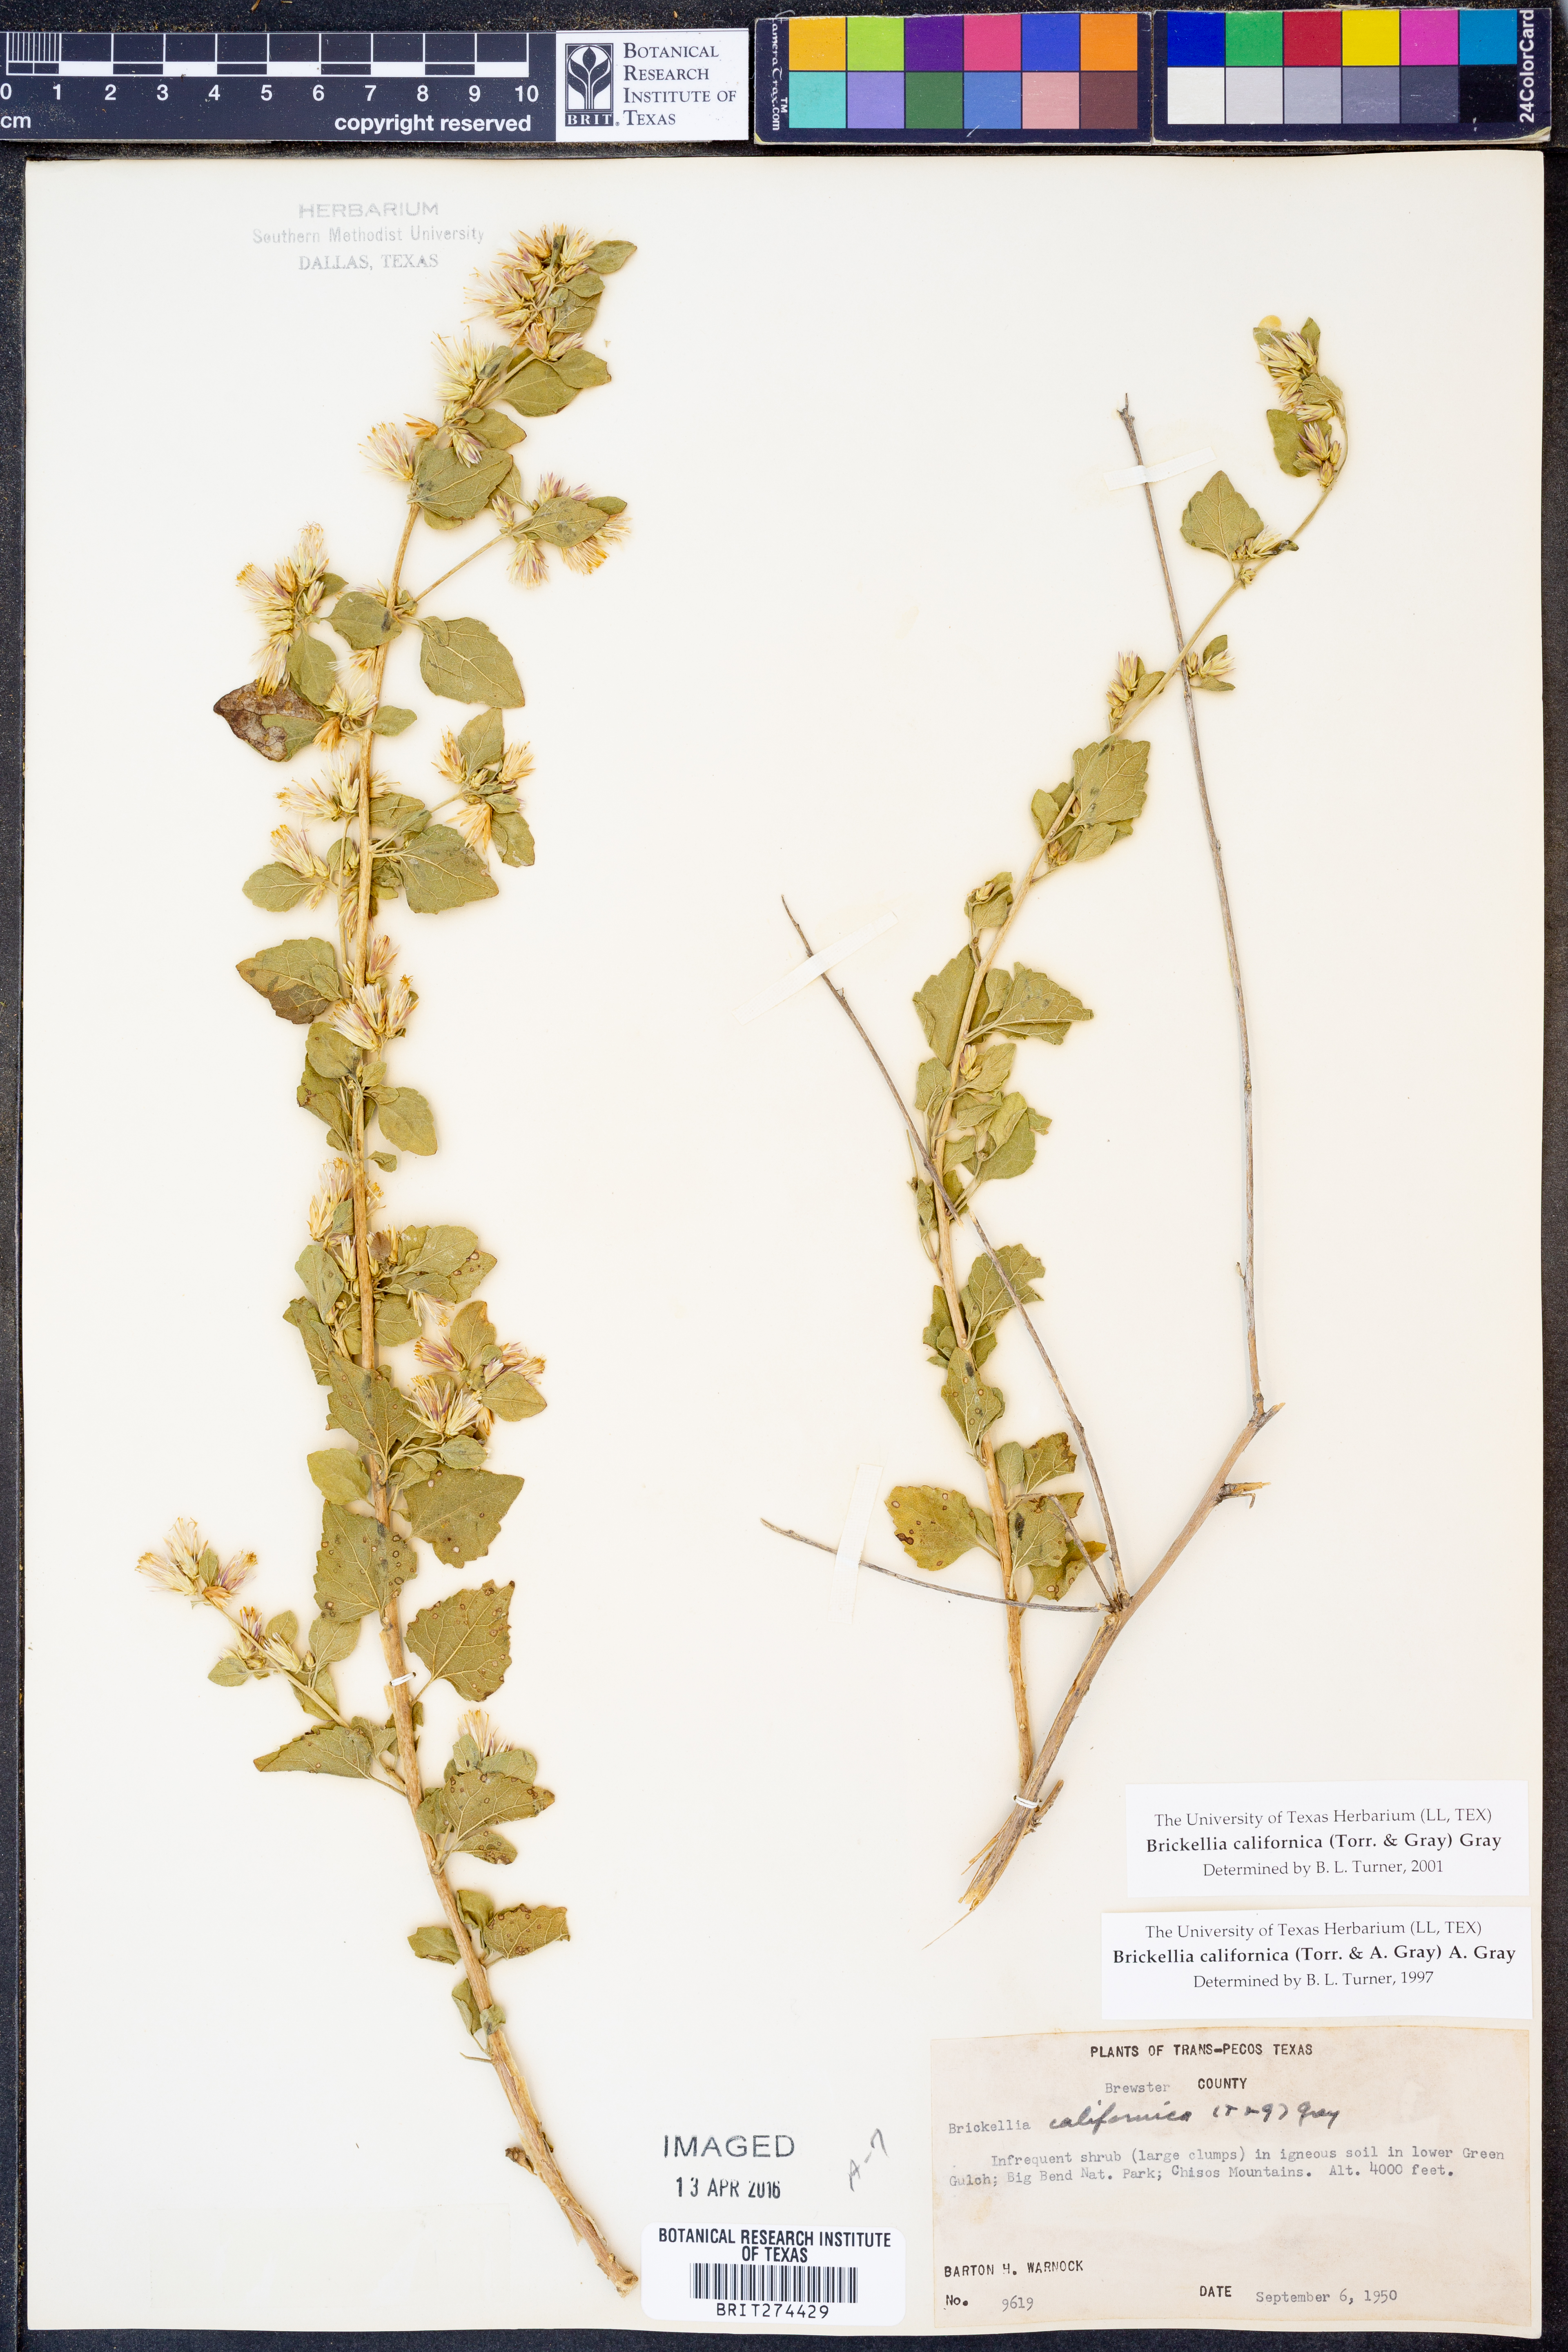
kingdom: Plantae
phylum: Tracheophyta
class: Magnoliopsida
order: Asterales
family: Asteraceae
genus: Brickellia
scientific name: Brickellia californica
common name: California brickellbush
